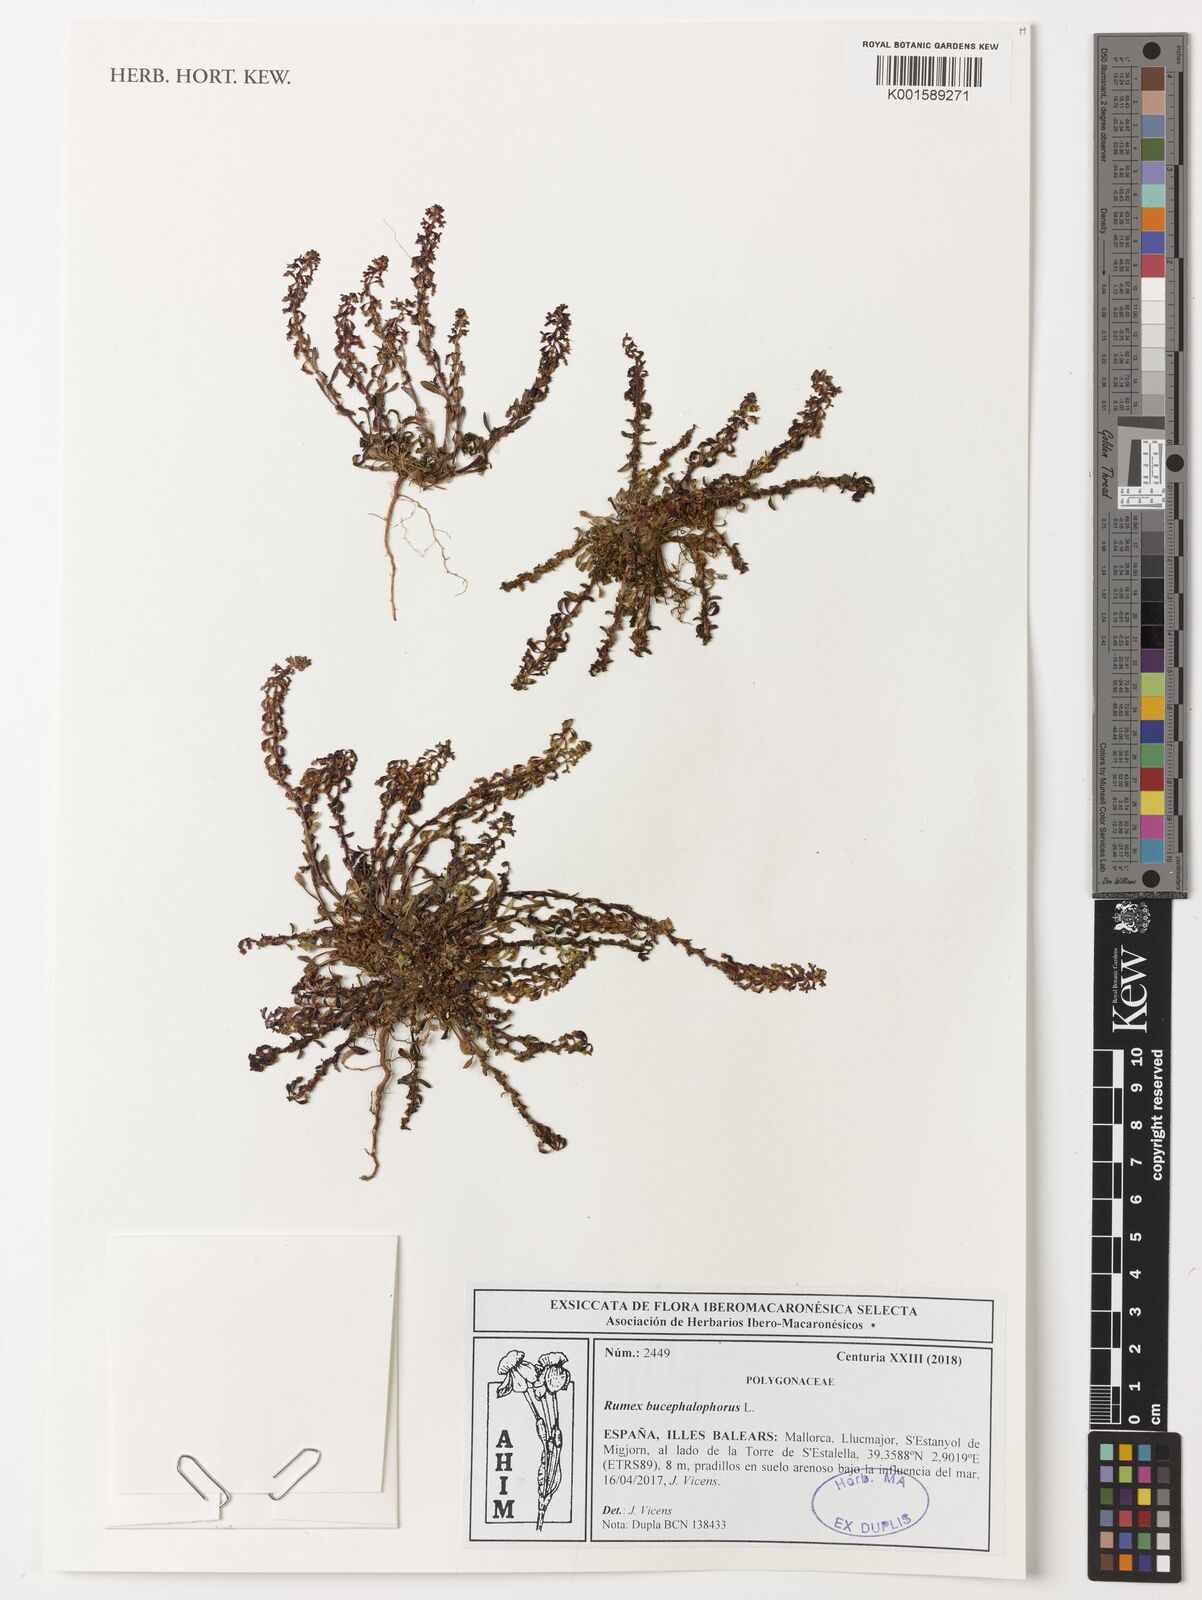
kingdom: Plantae
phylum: Tracheophyta
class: Magnoliopsida
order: Caryophyllales
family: Polygonaceae
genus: Rumex
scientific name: Rumex bucephalophorus
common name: Red dock
